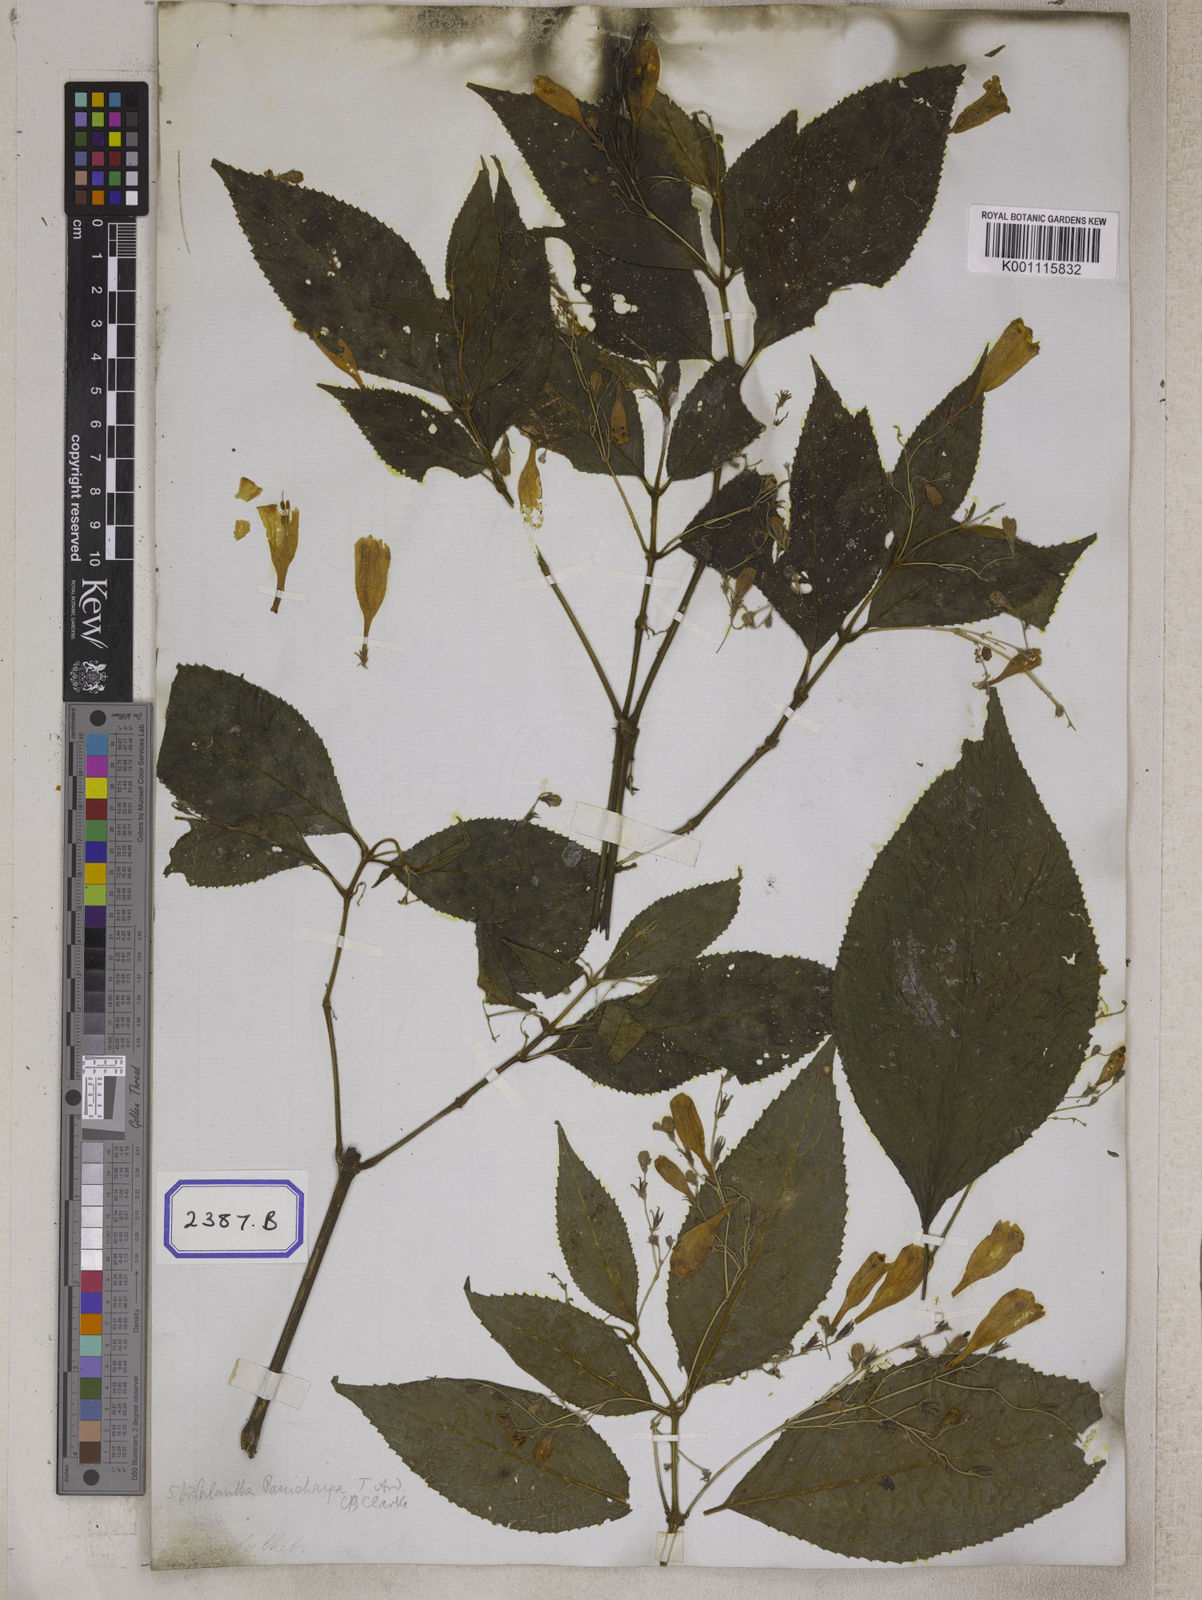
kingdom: Plantae
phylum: Tracheophyta
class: Magnoliopsida
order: Lamiales
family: Acanthaceae
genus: Strobilanthes
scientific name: Strobilanthes panichanga
